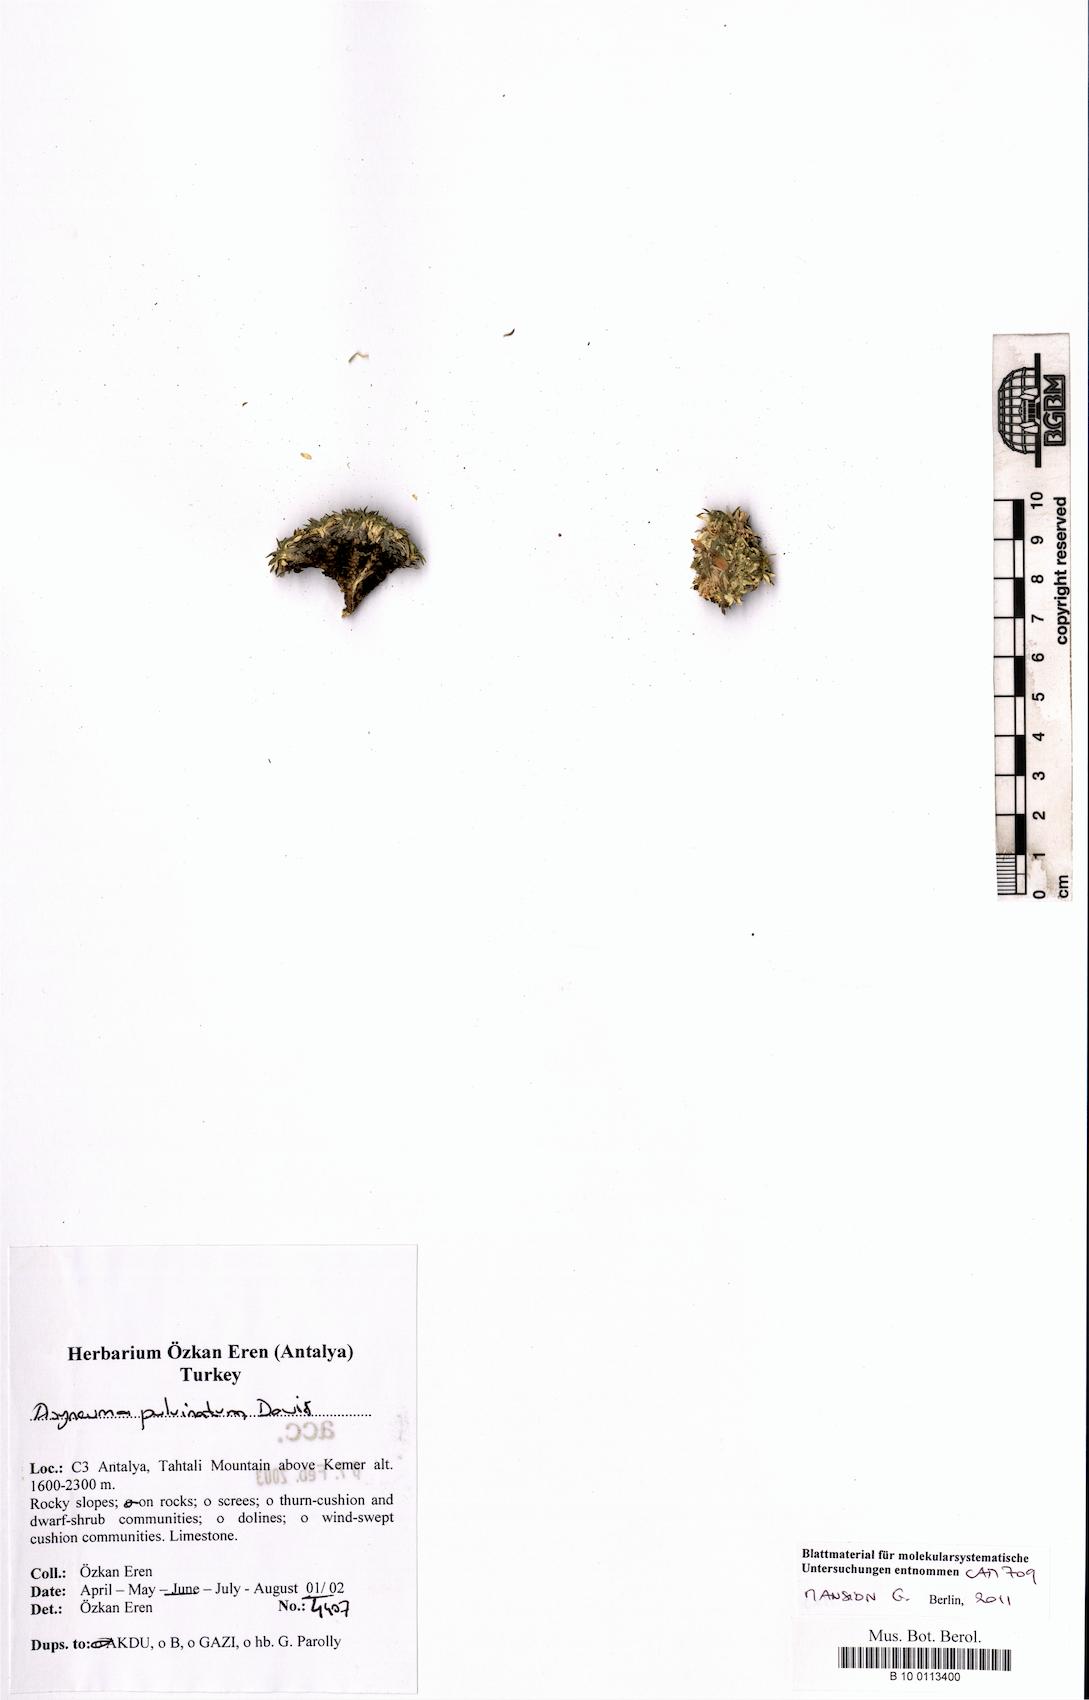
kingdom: Plantae
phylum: Tracheophyta
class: Magnoliopsida
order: Asterales
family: Campanulaceae
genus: Asyneuma
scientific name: Asyneuma pulvinatum
